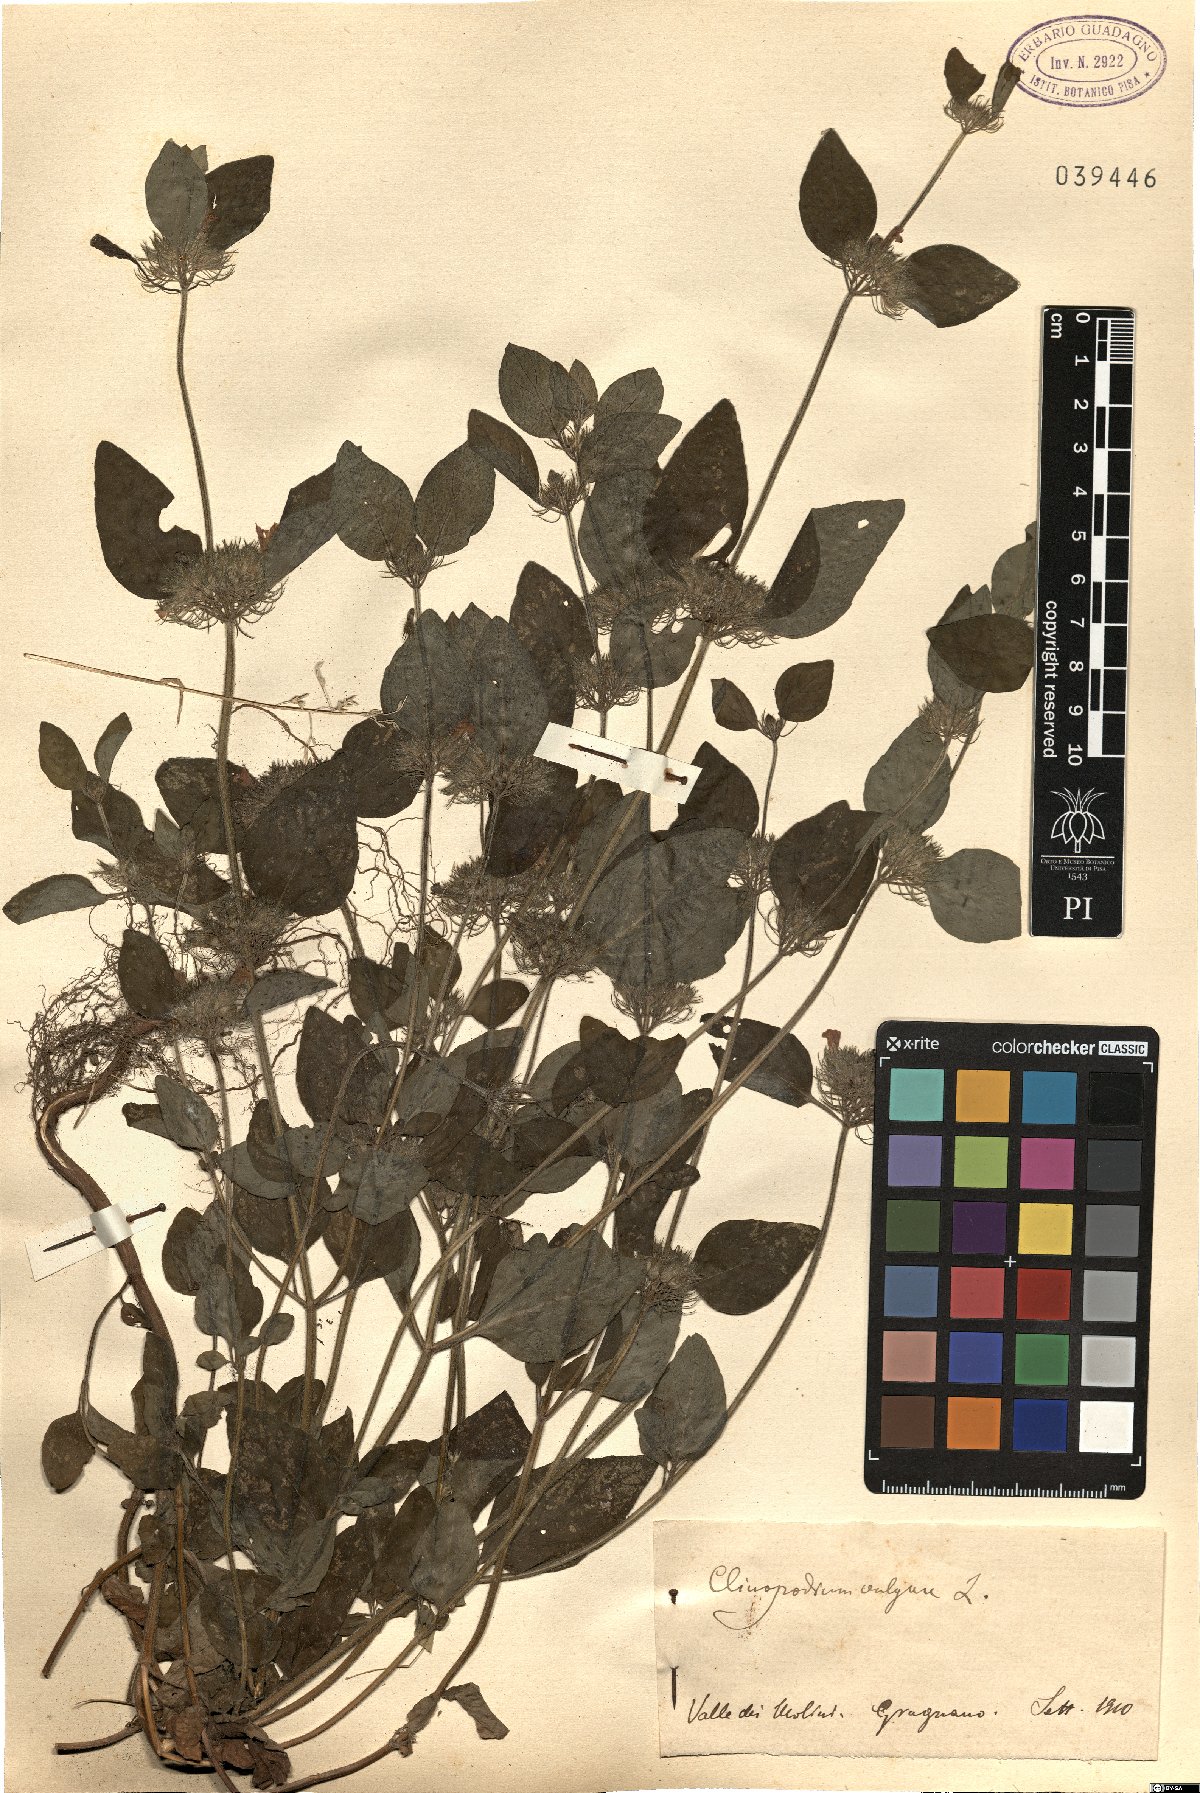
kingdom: Plantae
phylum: Tracheophyta
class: Magnoliopsida
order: Lamiales
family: Lamiaceae
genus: Clinopodium
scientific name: Clinopodium vulgare
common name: Wild basil
